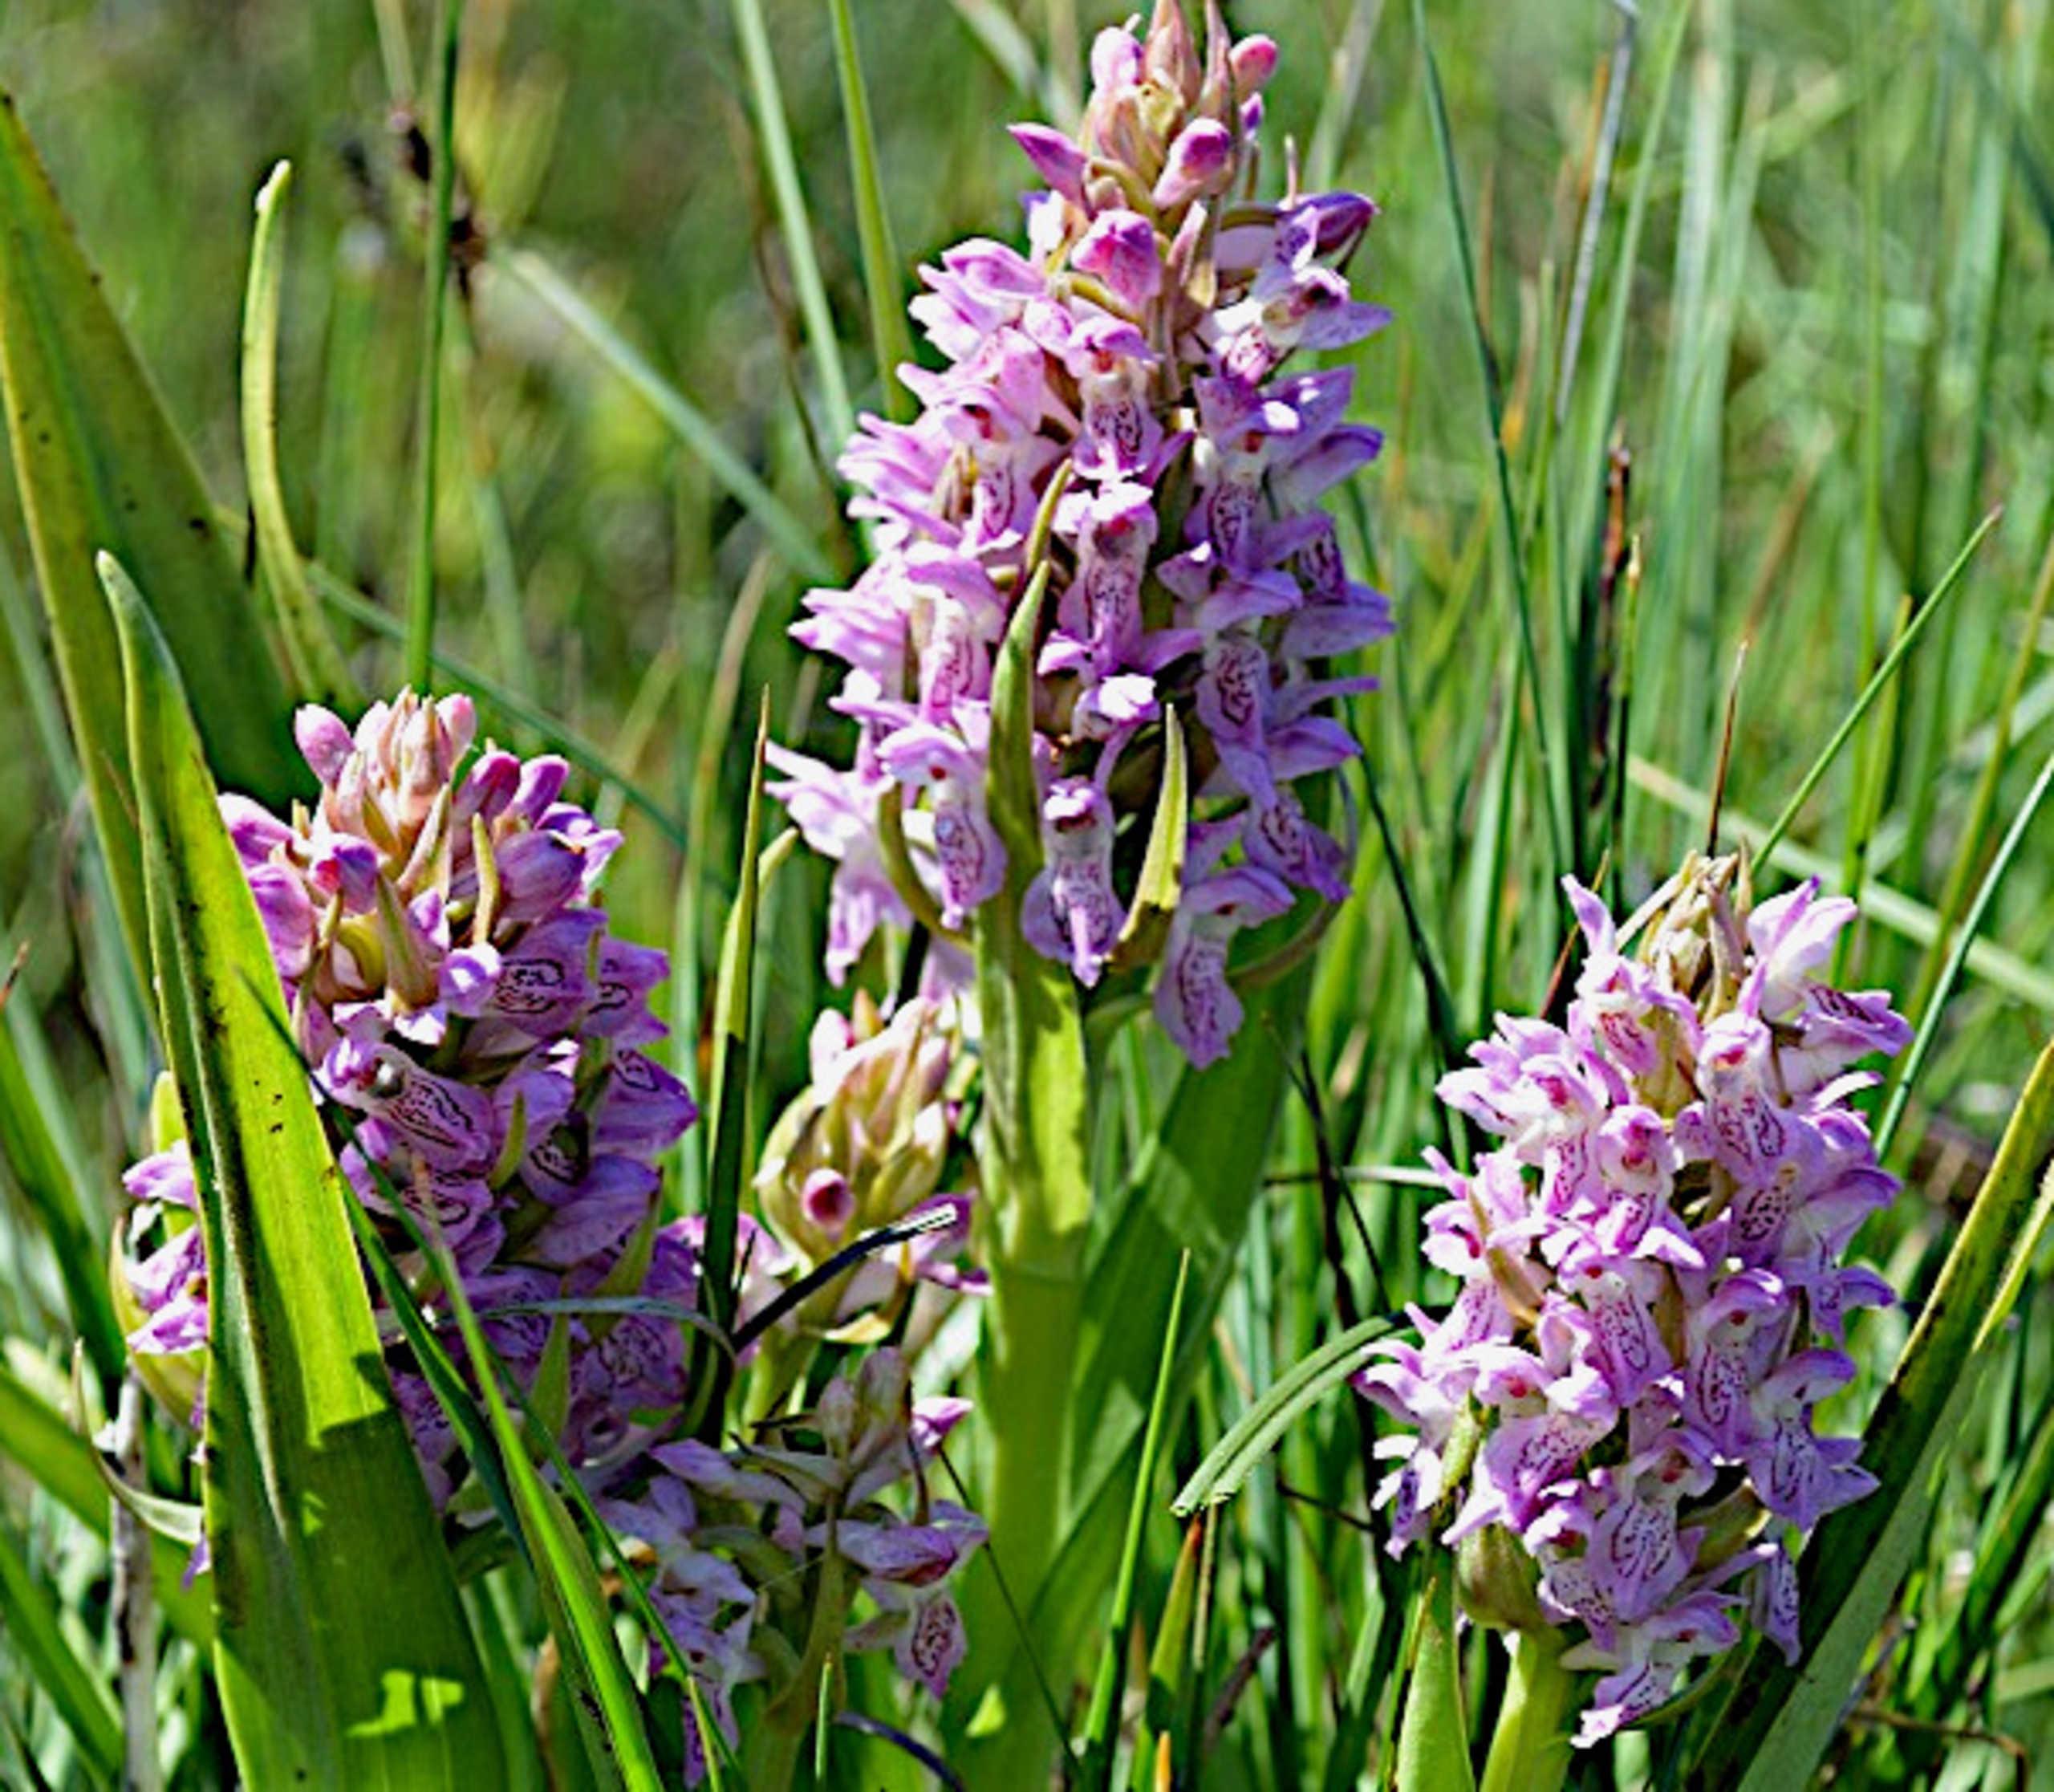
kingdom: Plantae
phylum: Tracheophyta
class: Liliopsida
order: Asparagales
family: Orchidaceae
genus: Dactylorhiza
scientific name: Dactylorhiza incarnata
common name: Klit-gøgeurt
